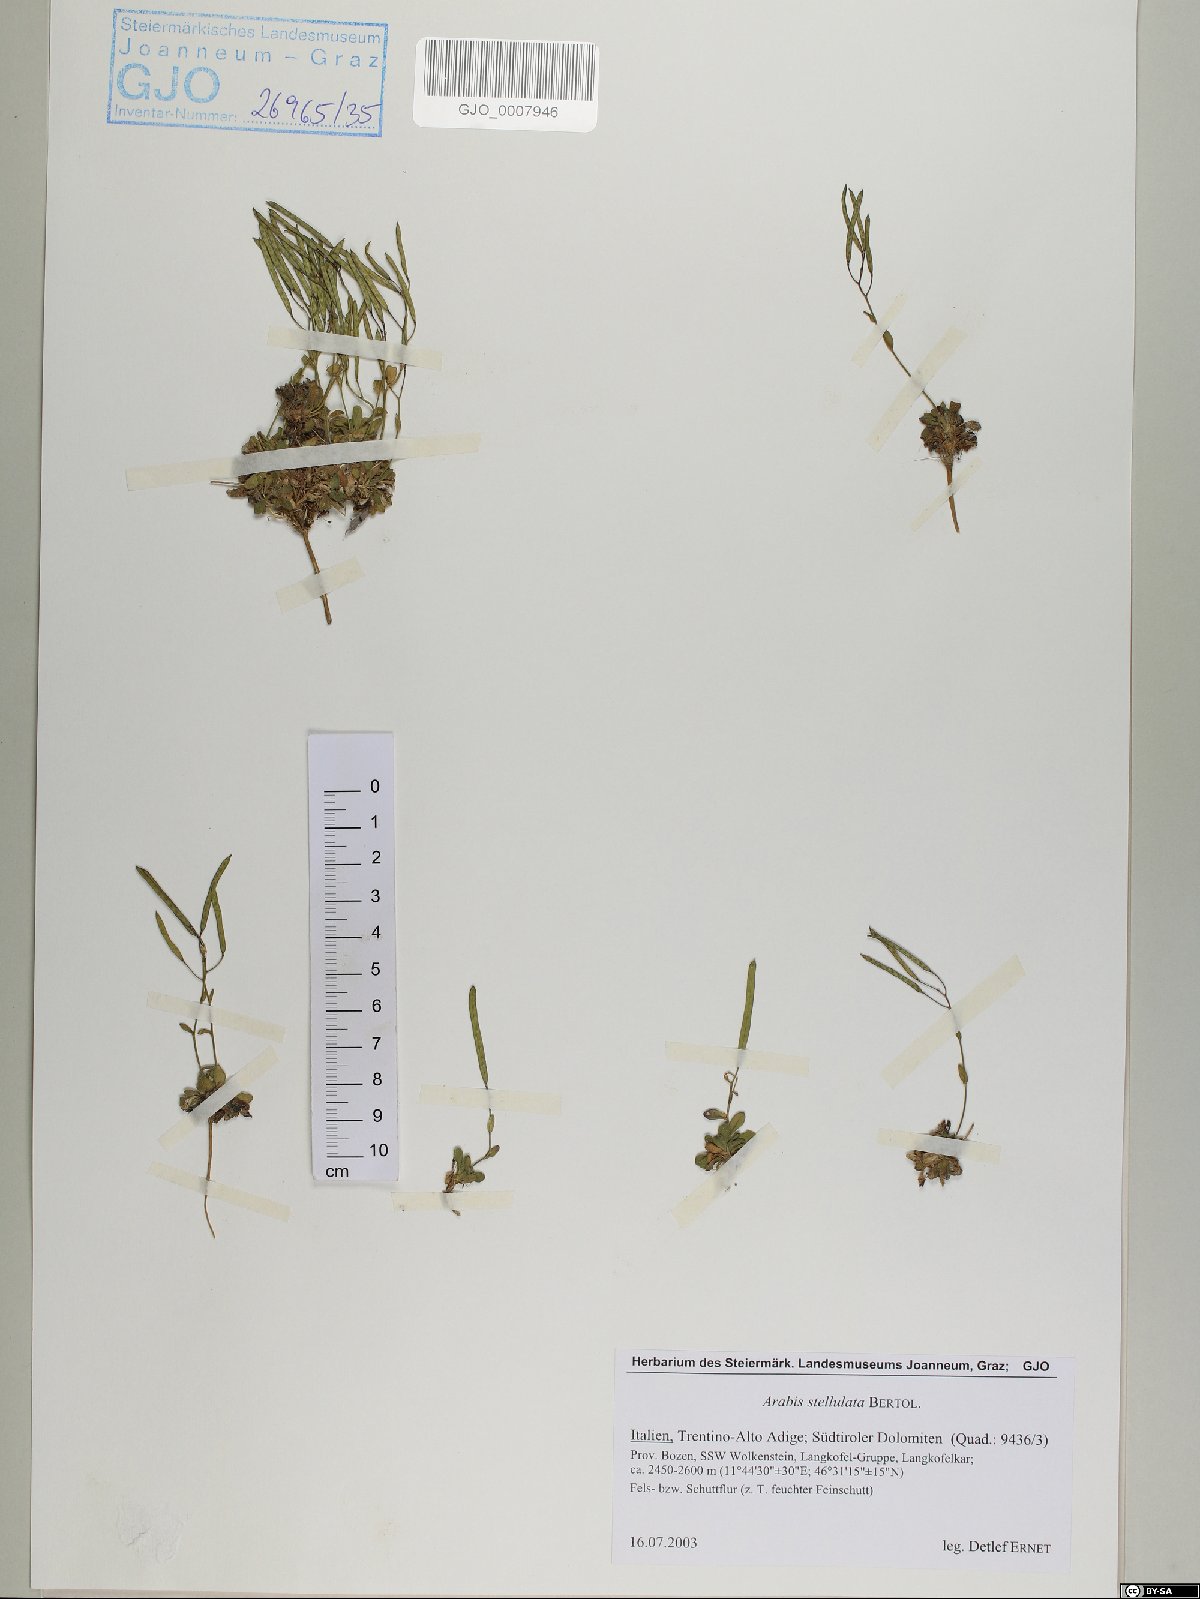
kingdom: Plantae
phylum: Tracheophyta
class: Magnoliopsida
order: Brassicales
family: Brassicaceae
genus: Arabis
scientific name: Arabis stellulata
